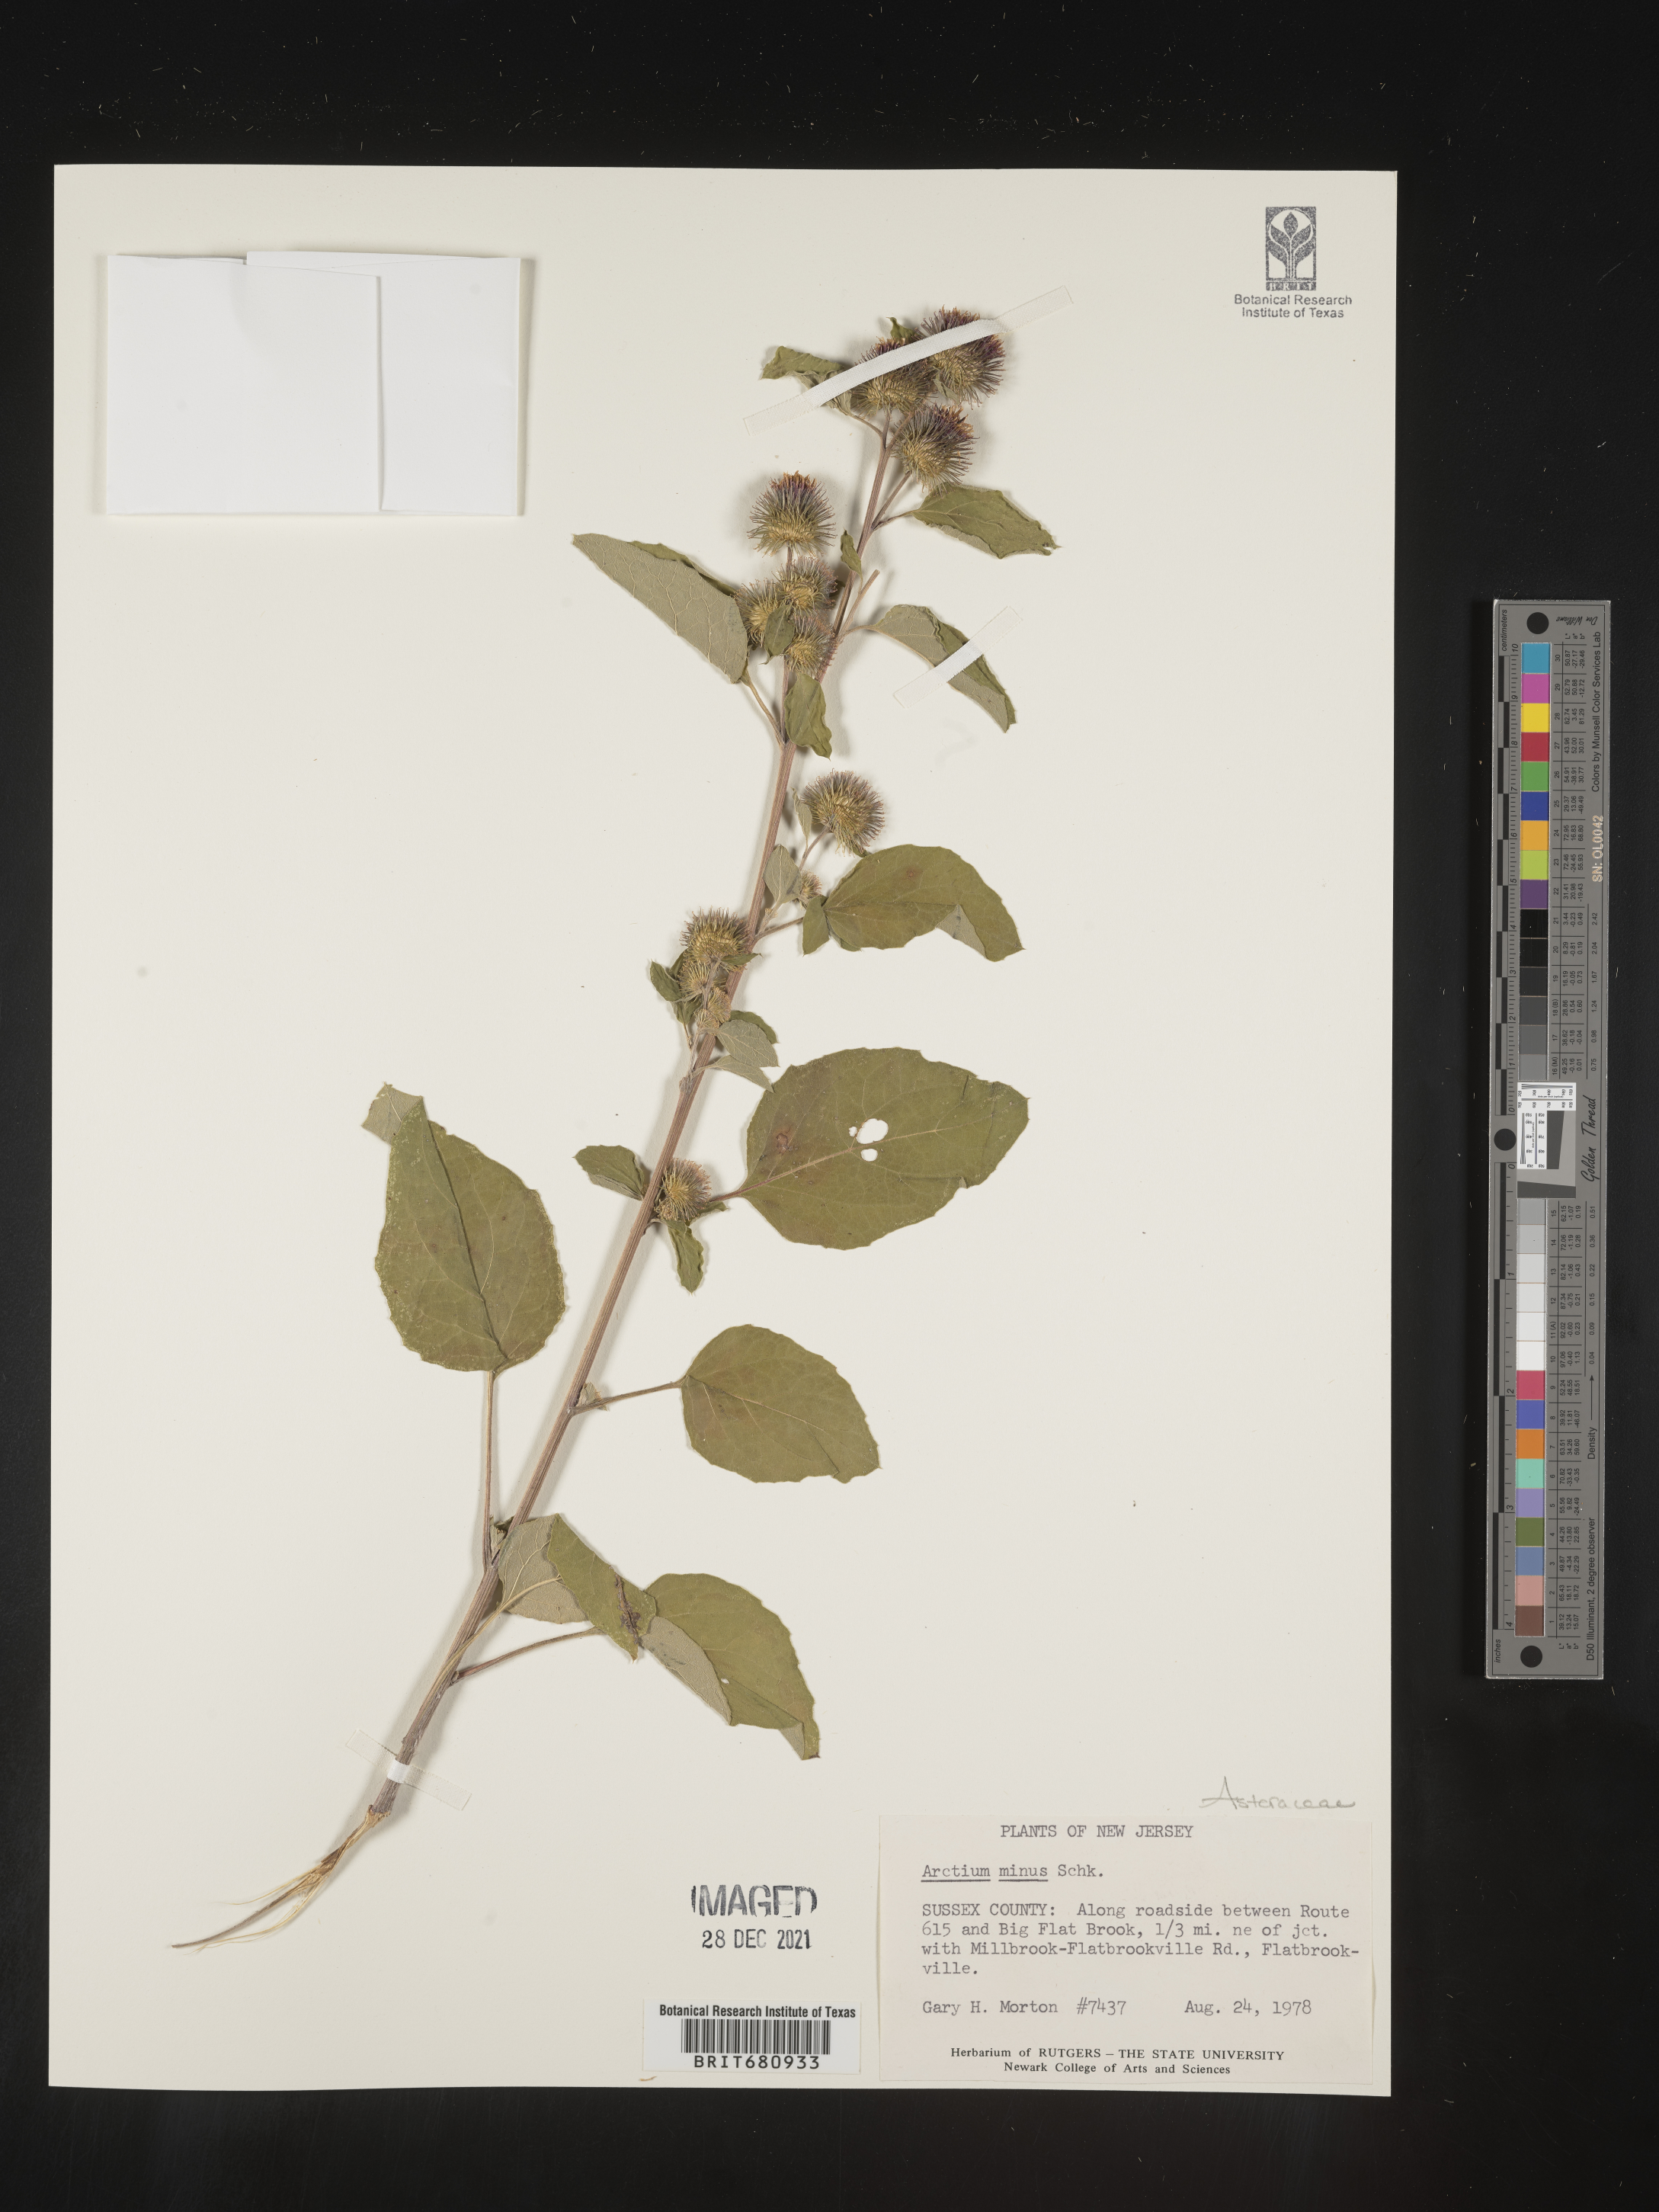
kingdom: Plantae
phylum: Tracheophyta
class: Magnoliopsida
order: Asterales
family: Asteraceae
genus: Arctium
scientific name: Arctium minus
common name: Lesser burdock
